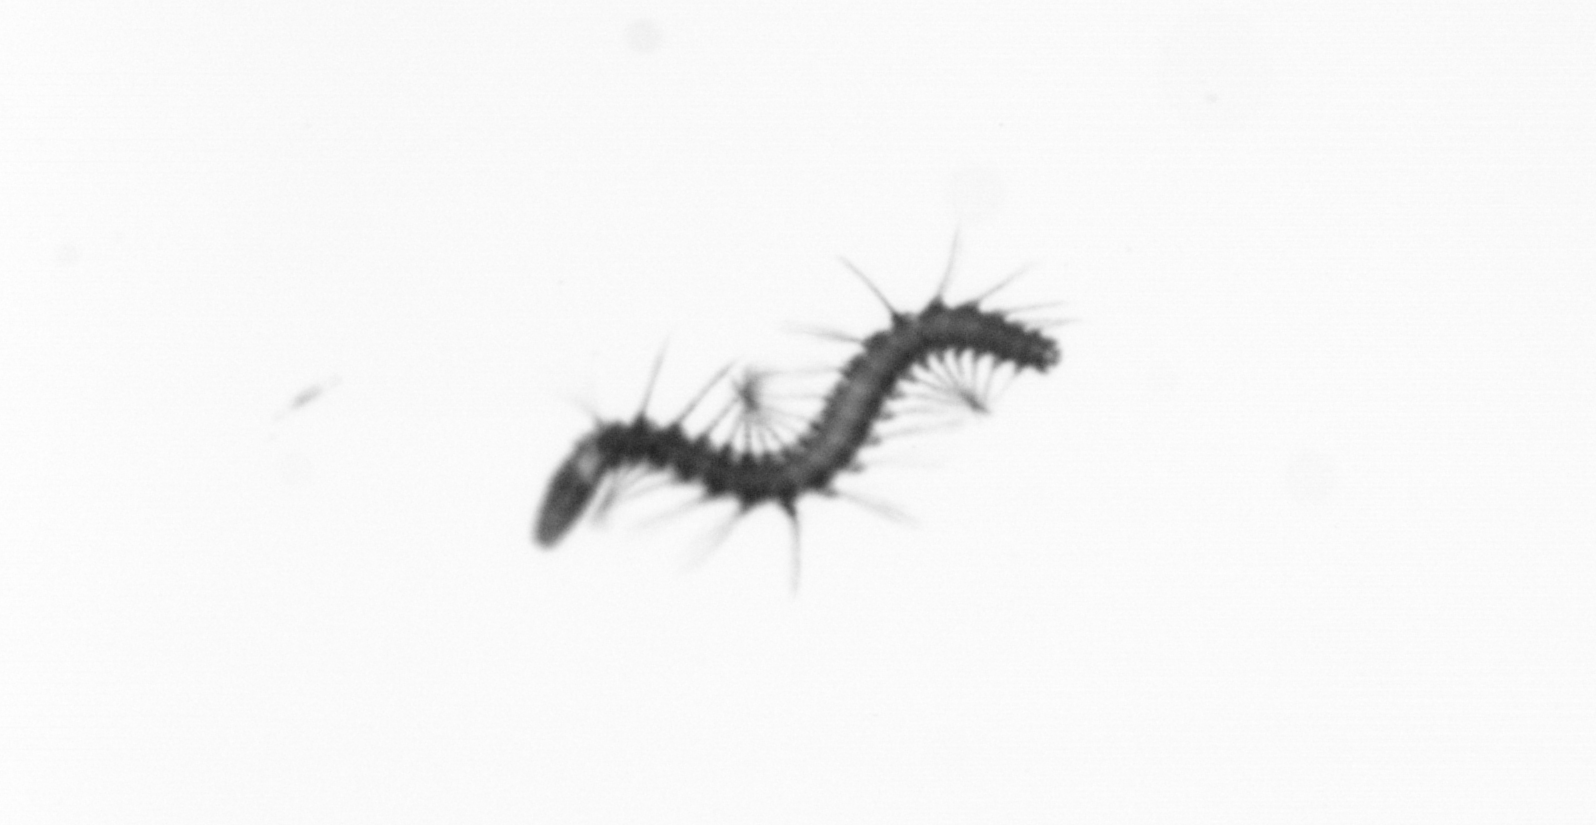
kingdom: Animalia
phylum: Annelida
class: Polychaeta
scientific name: Polychaeta
